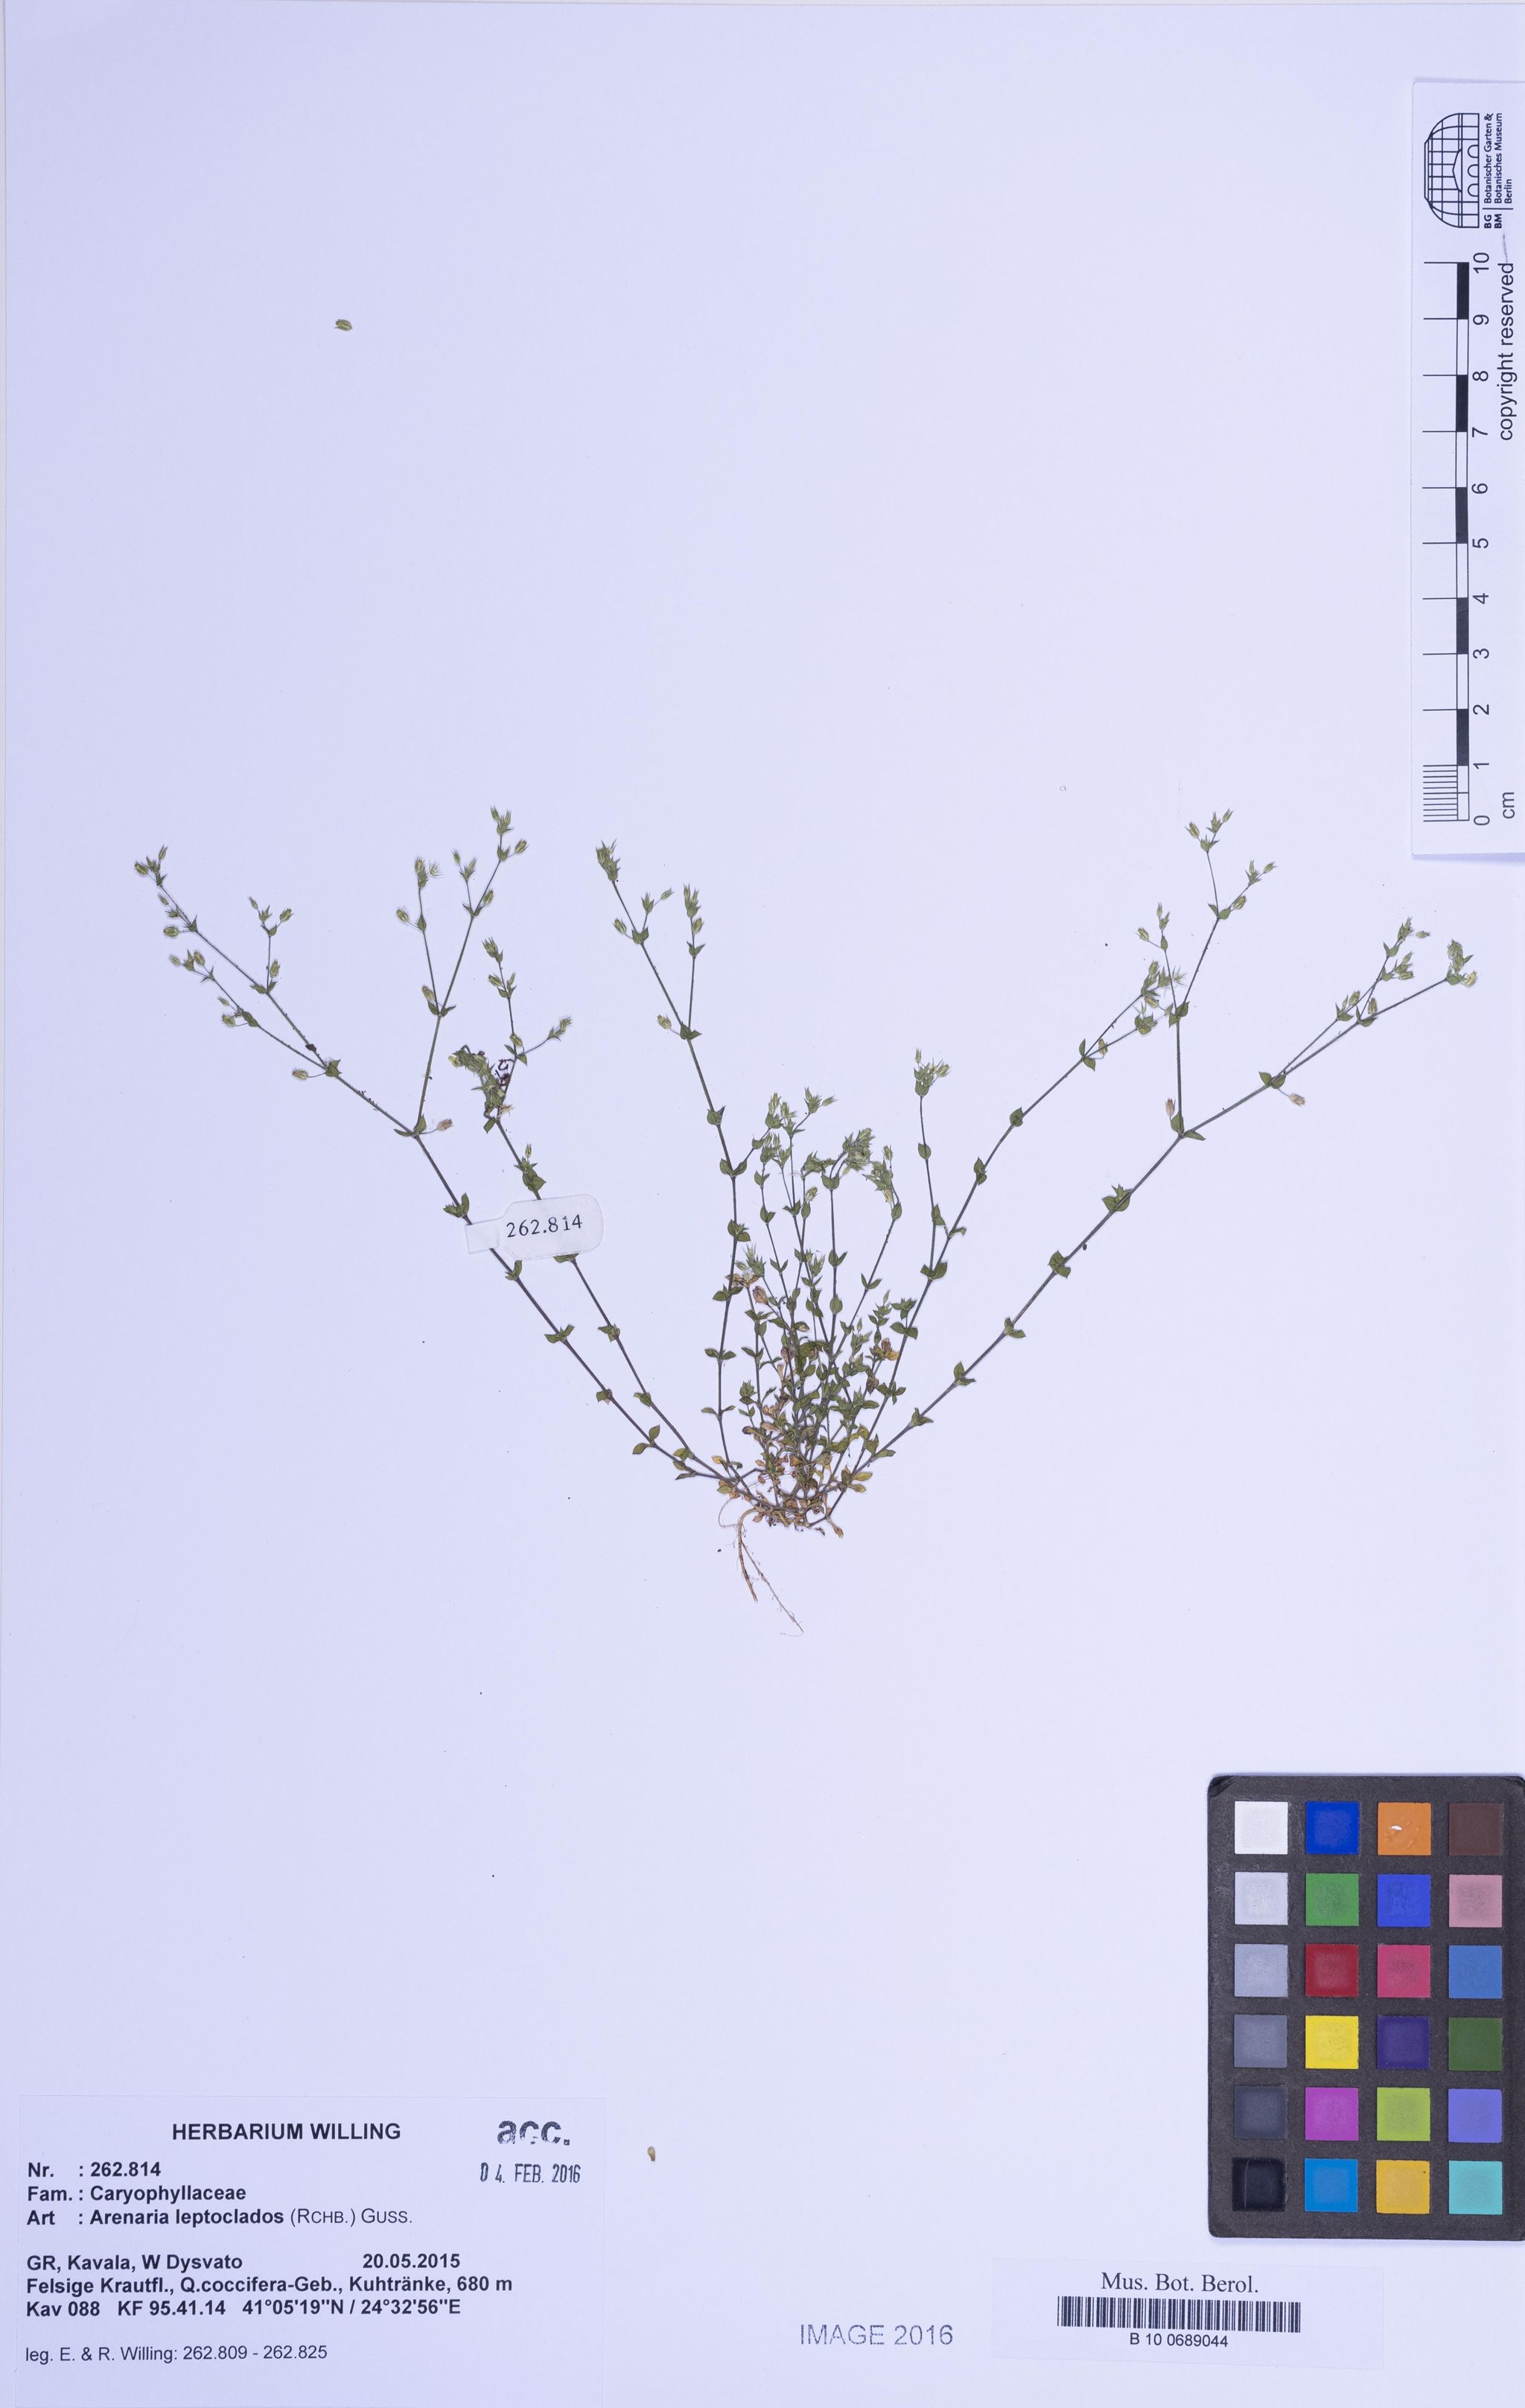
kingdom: Plantae
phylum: Tracheophyta
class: Magnoliopsida
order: Caryophyllales
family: Caryophyllaceae
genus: Arenaria
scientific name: Arenaria leptoclados
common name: Thyme-leaved sandwort
